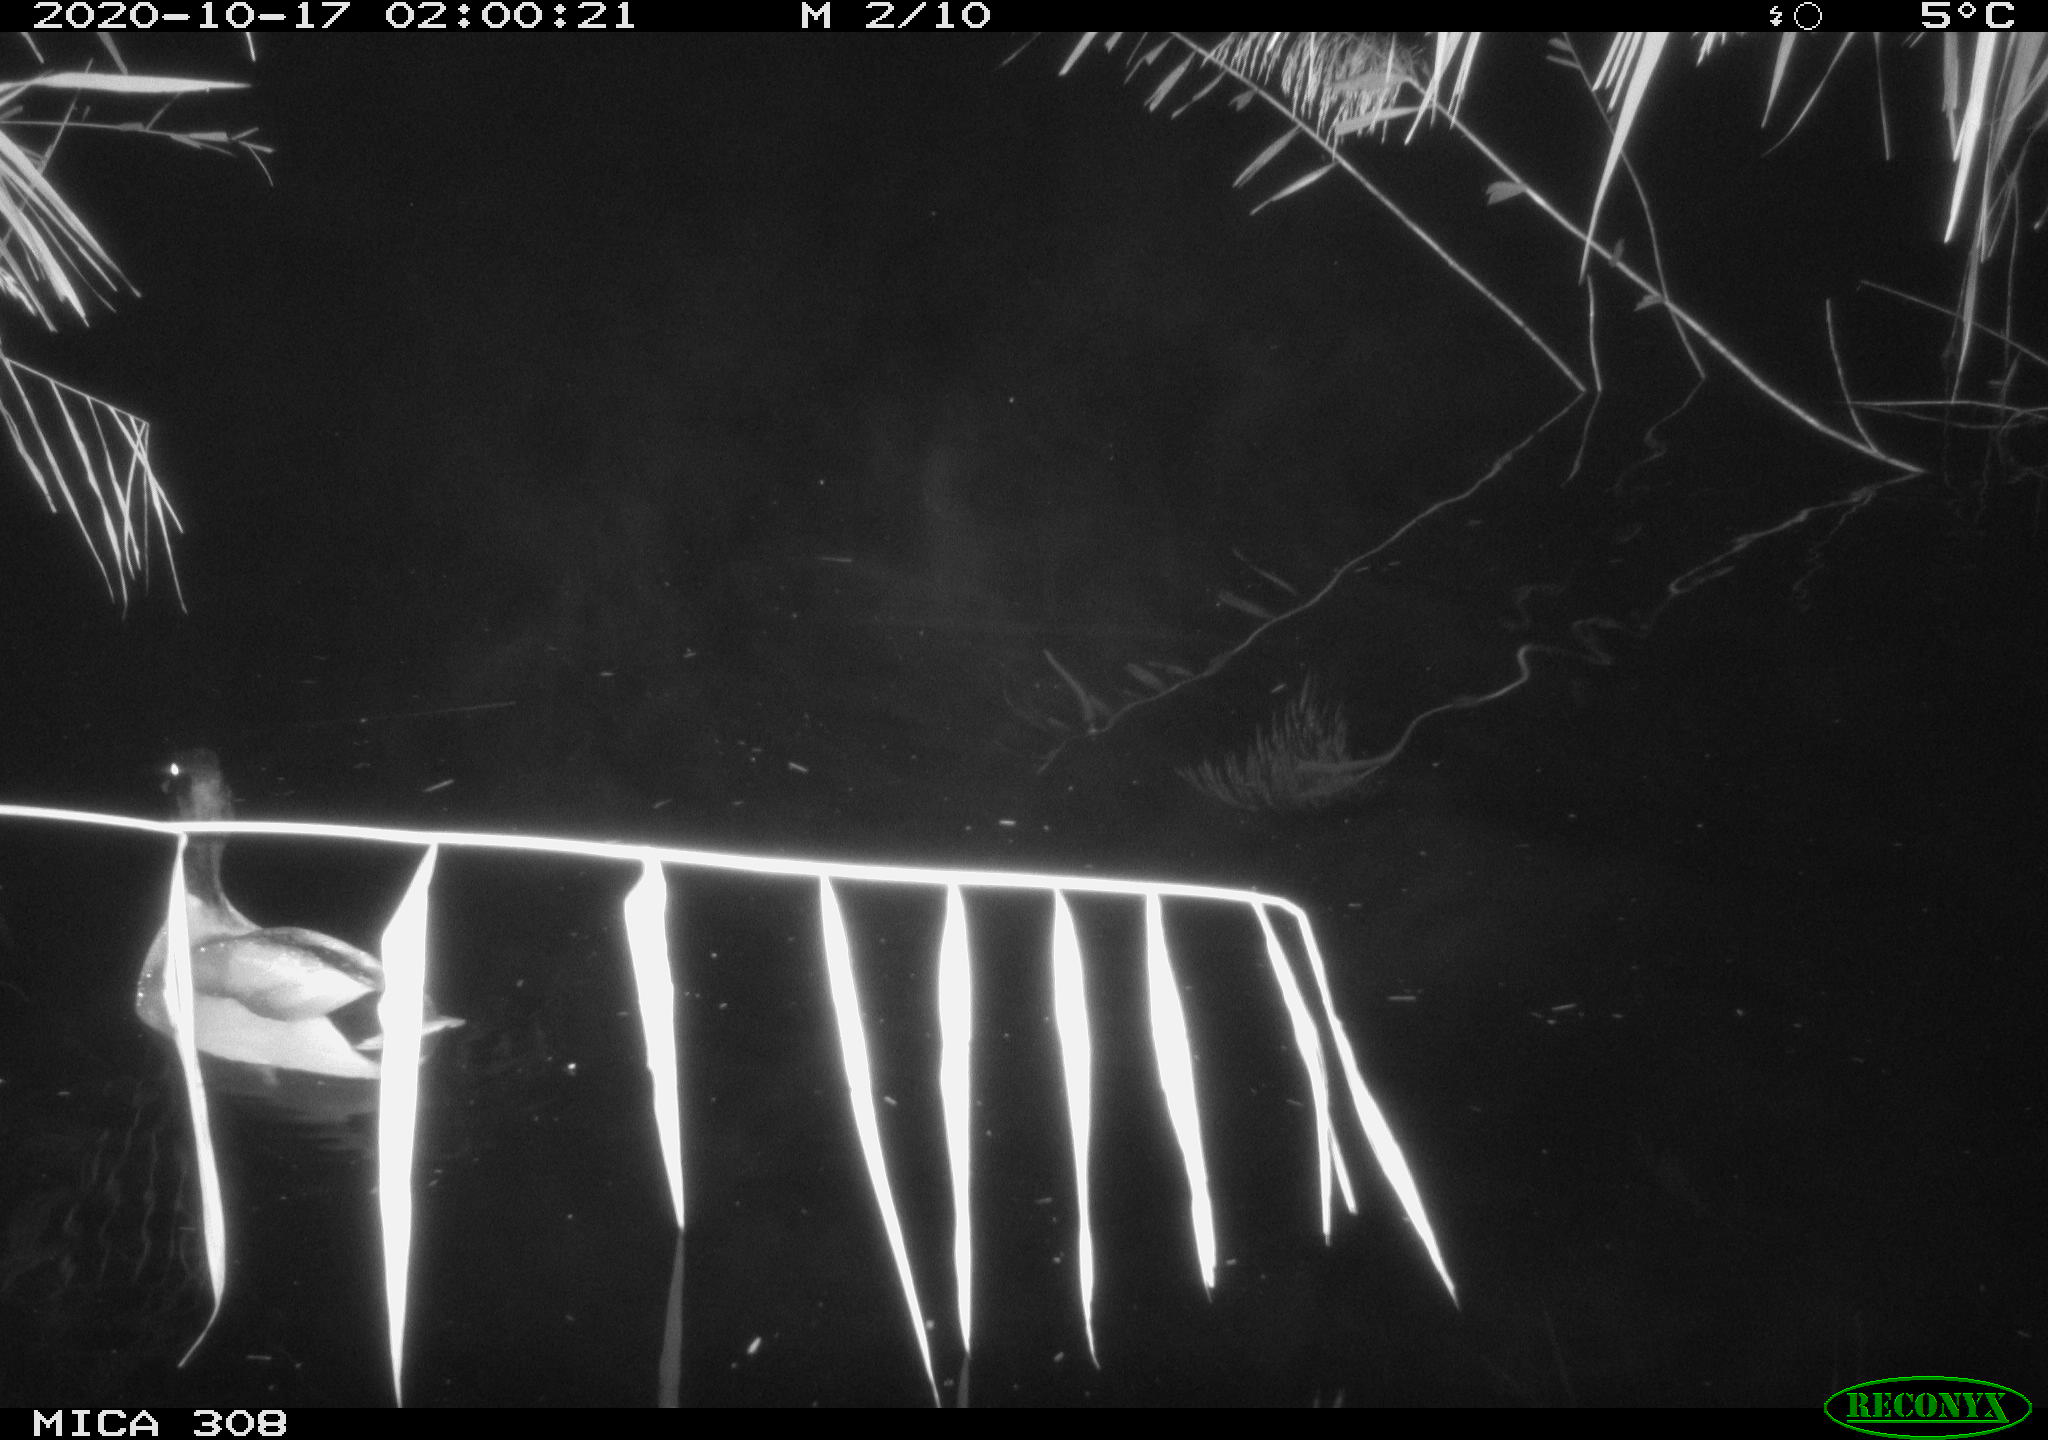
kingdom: Animalia
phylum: Chordata
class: Aves
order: Anseriformes
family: Anatidae
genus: Anas
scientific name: Anas platyrhynchos
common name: Mallard
